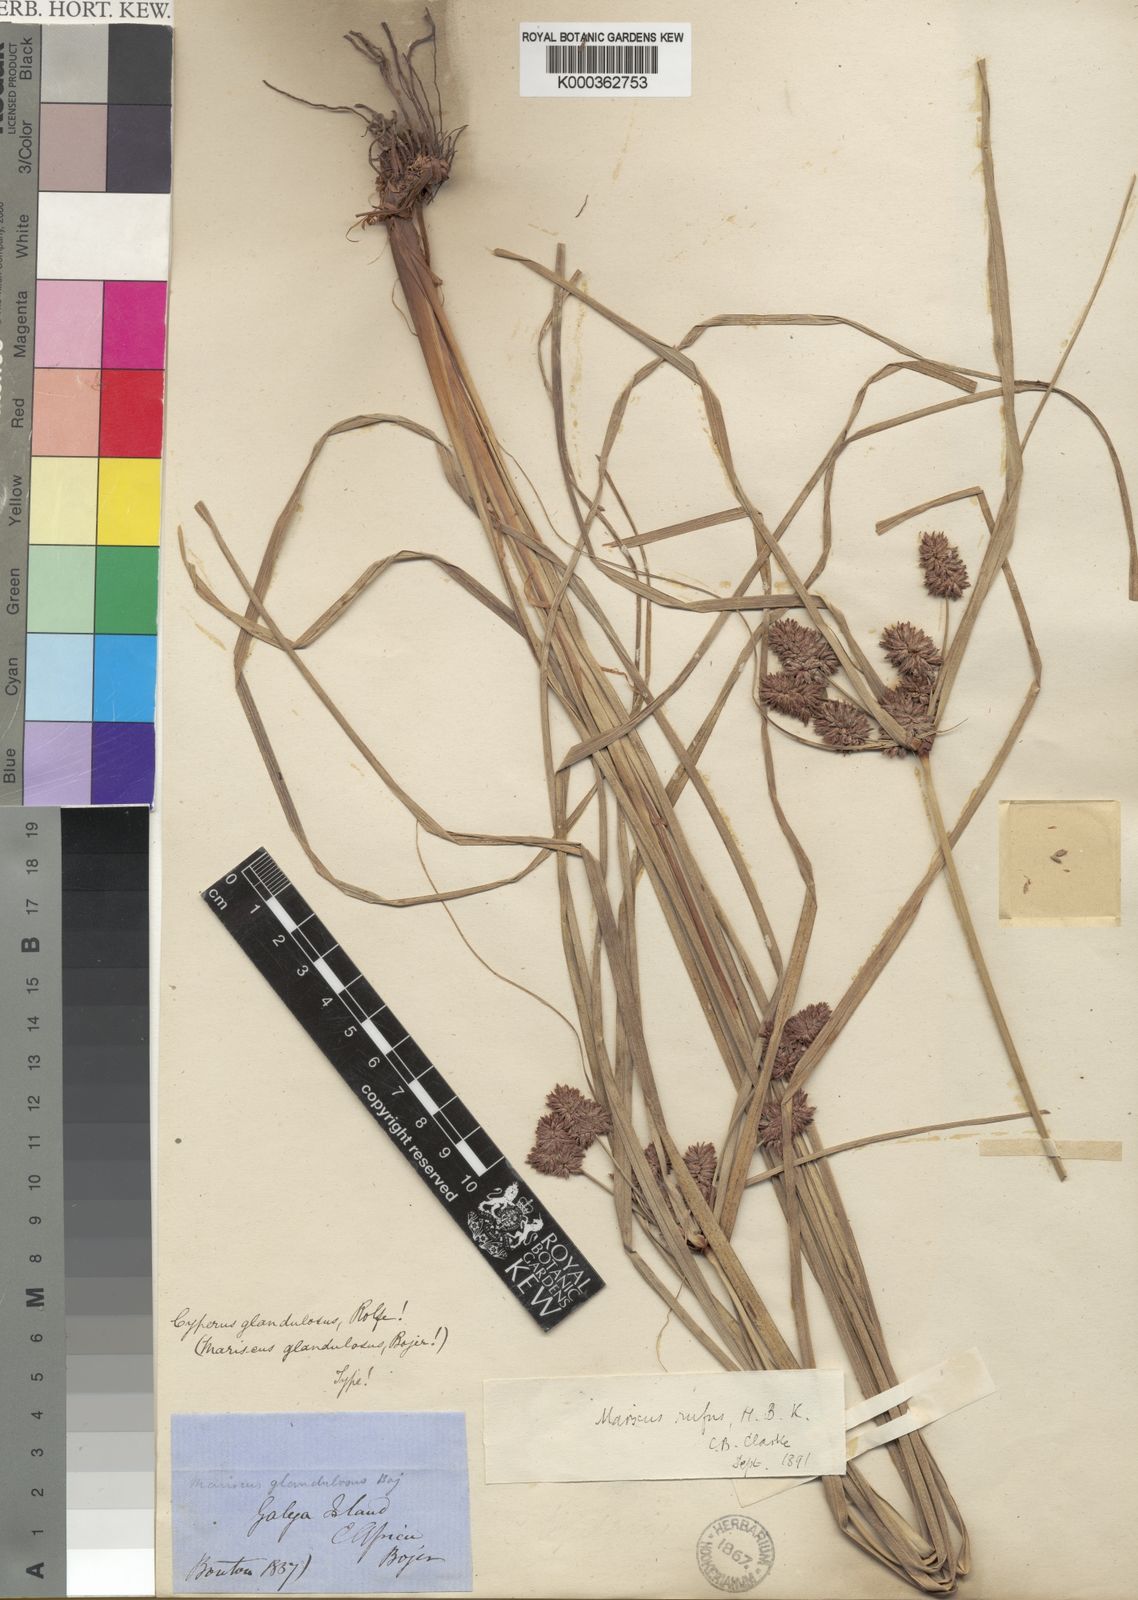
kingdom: Plantae
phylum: Tracheophyta
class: Liliopsida
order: Poales
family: Cyperaceae
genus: Cyperus
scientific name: Cyperus ligularis
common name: Swamp flat sedge
